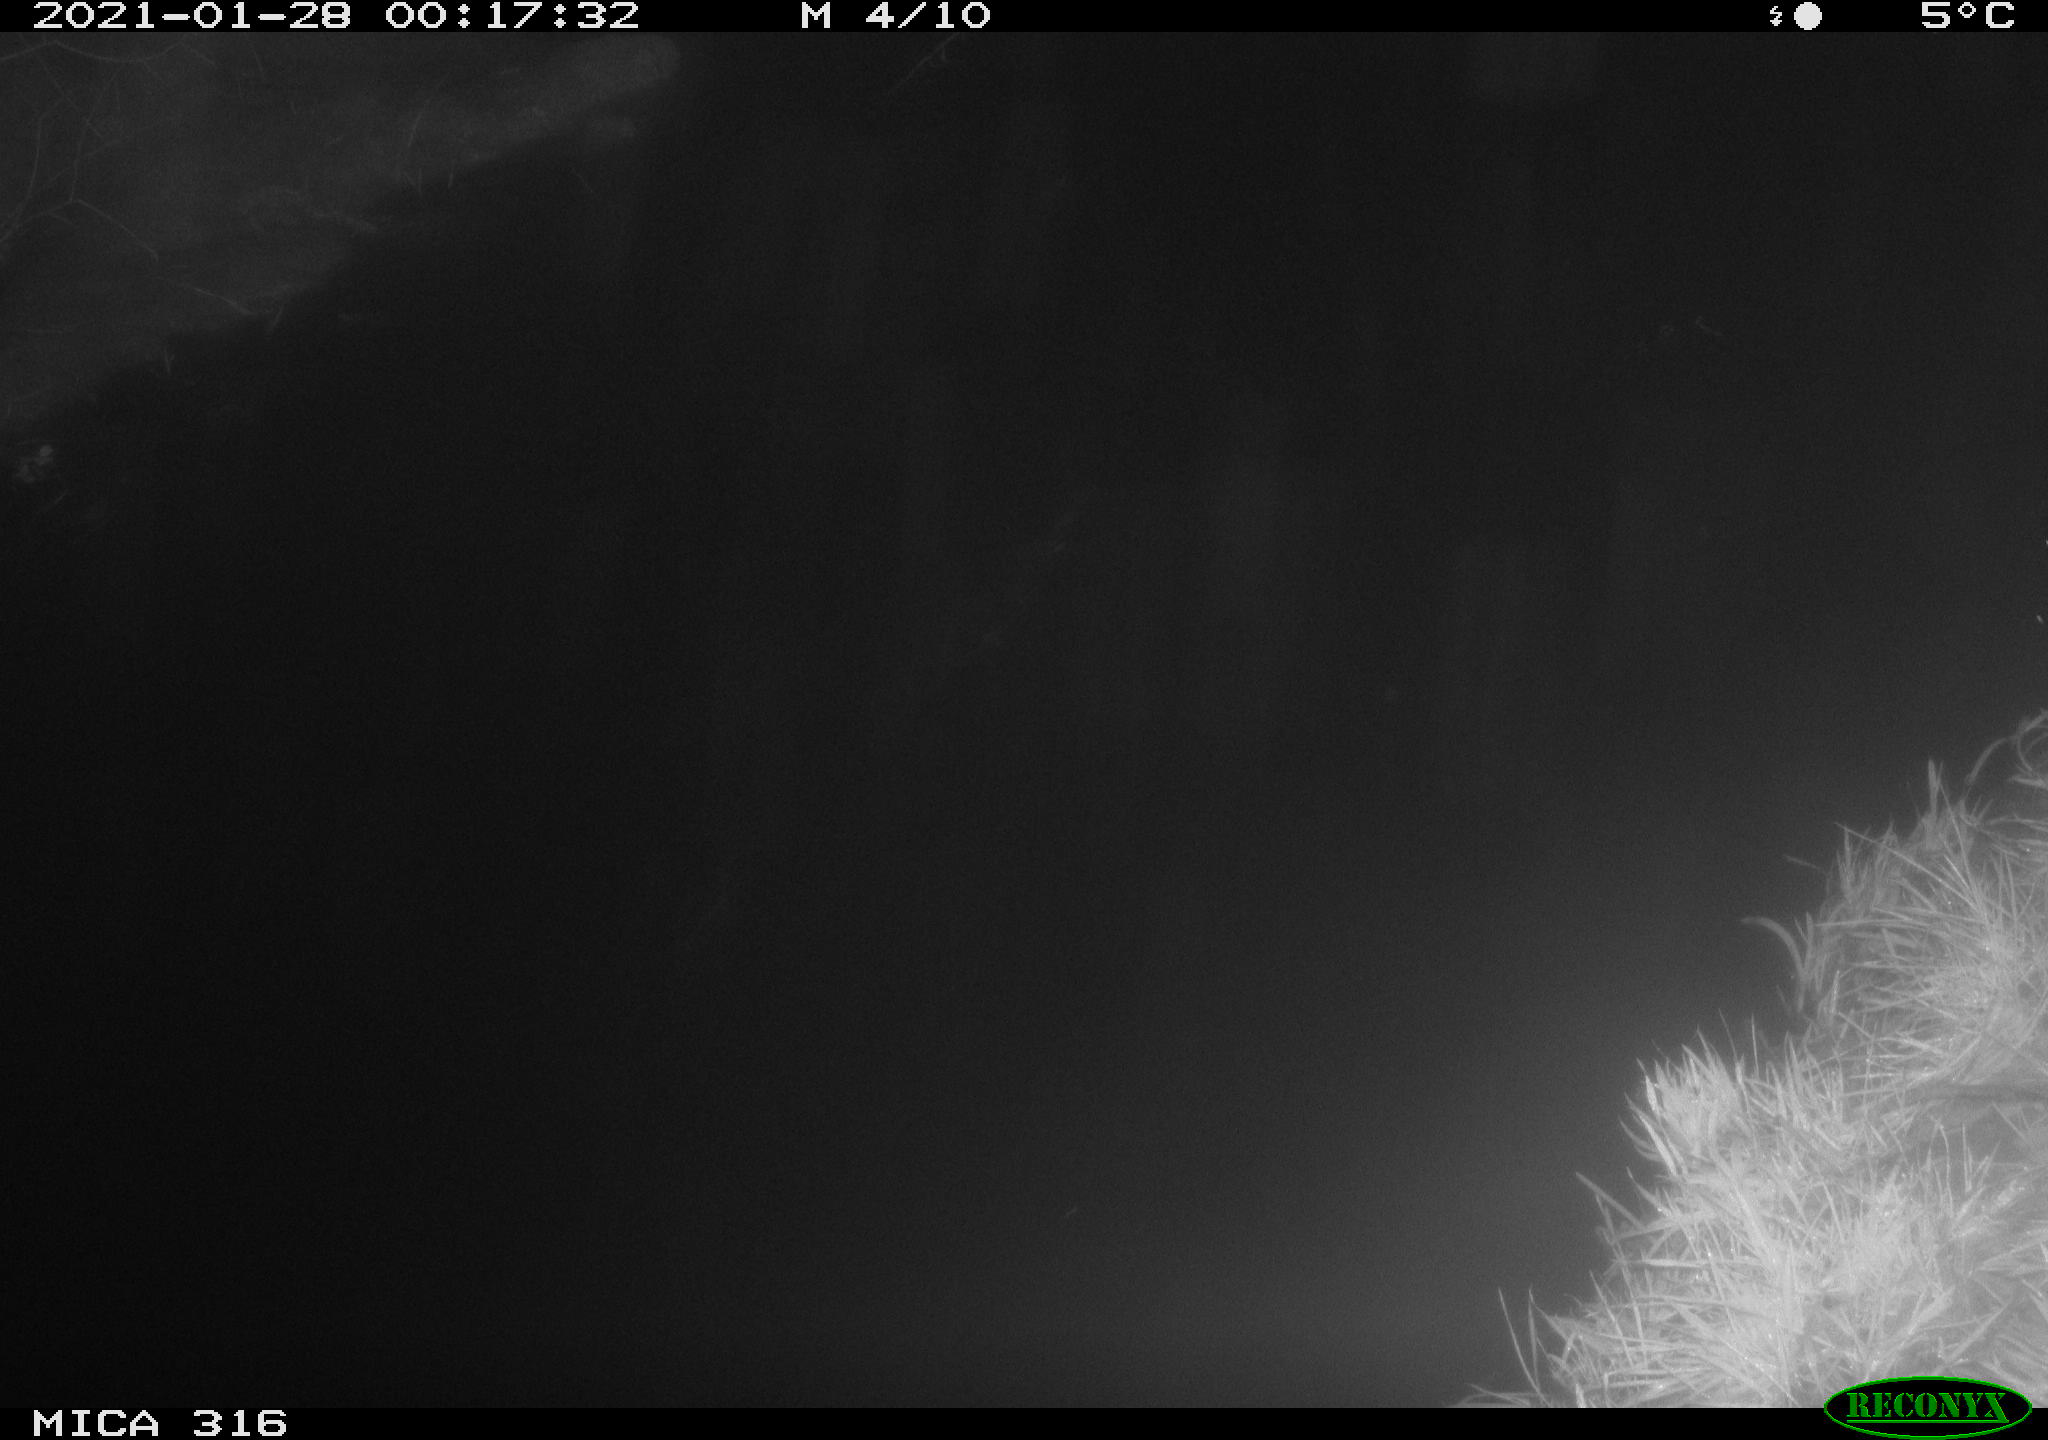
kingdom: Animalia
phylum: Chordata
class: Aves
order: Anseriformes
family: Anatidae
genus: Anas
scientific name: Anas platyrhynchos
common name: Mallard
